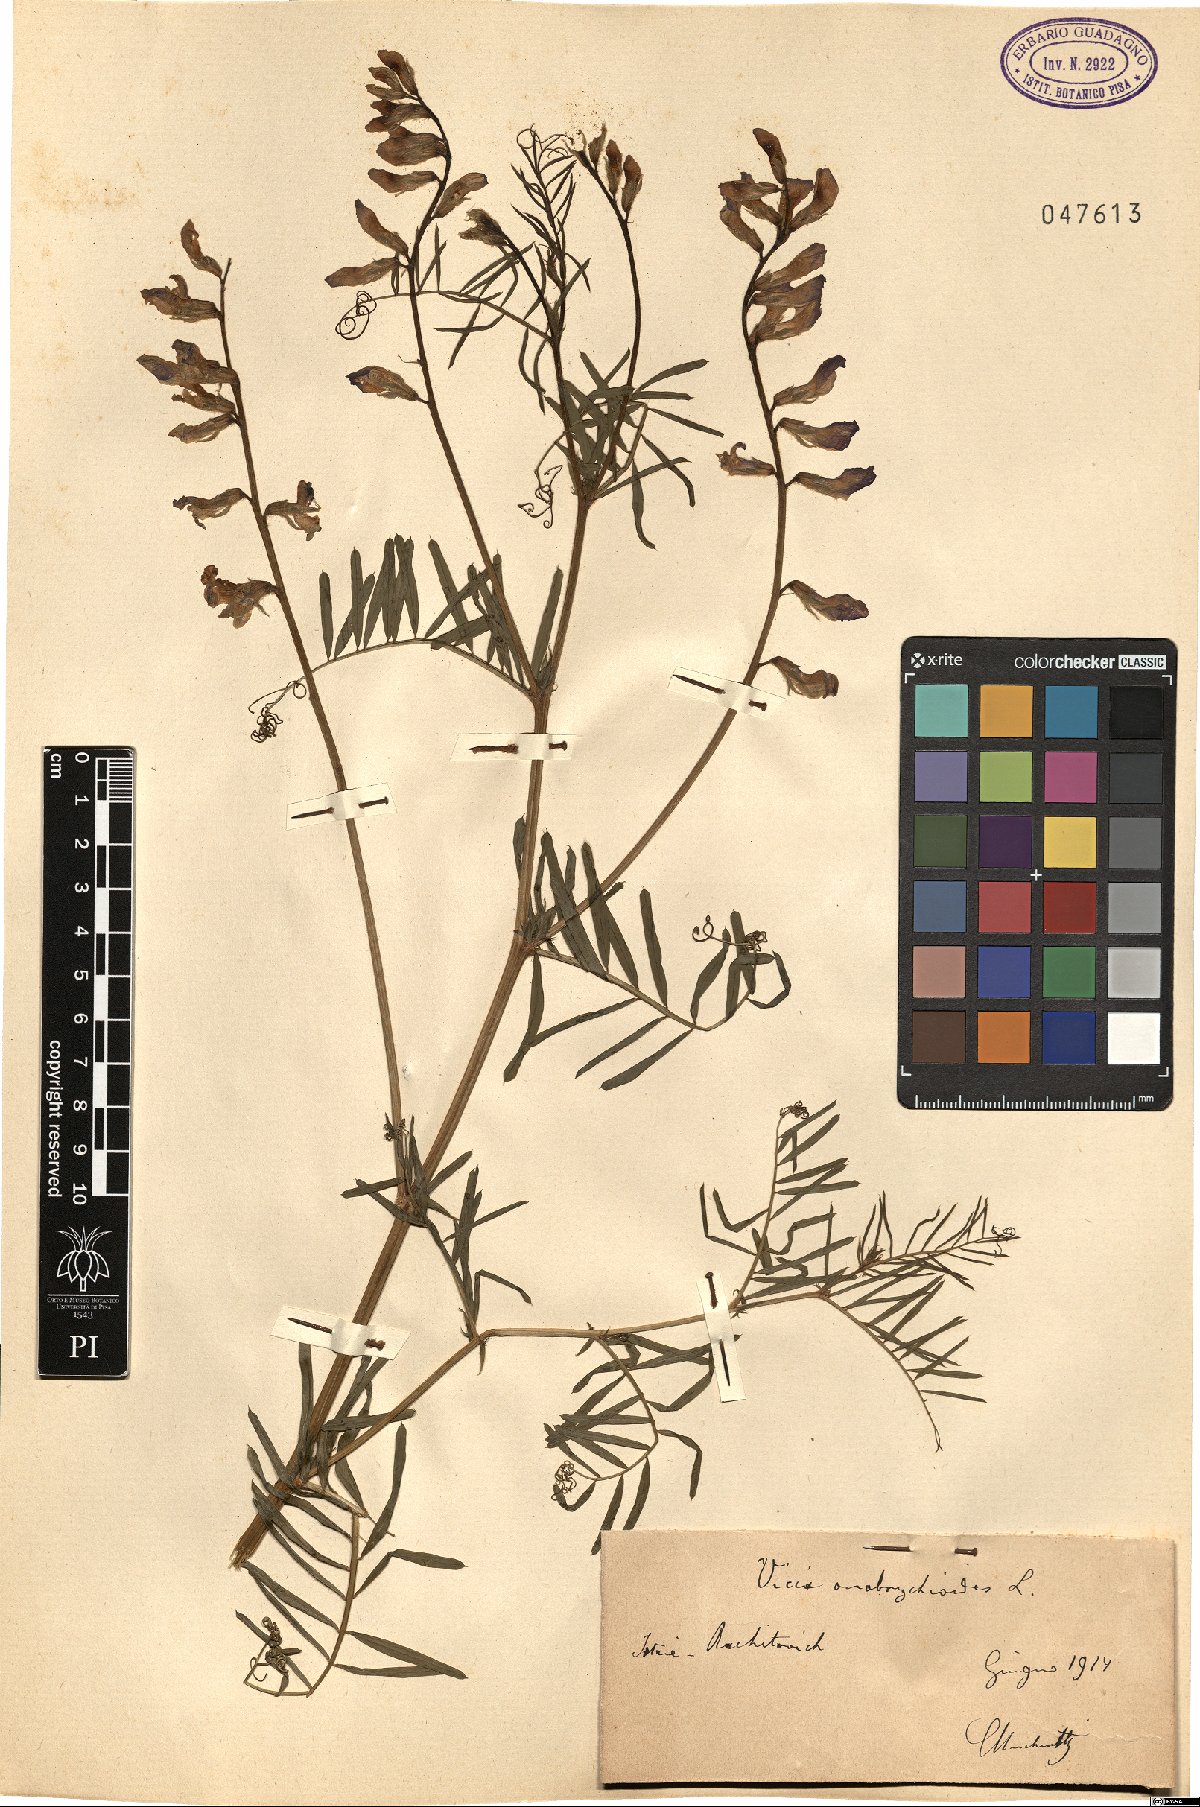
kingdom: Plantae
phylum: Tracheophyta
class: Magnoliopsida
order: Fabales
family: Fabaceae
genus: Vicia
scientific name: Vicia onobrychioides
